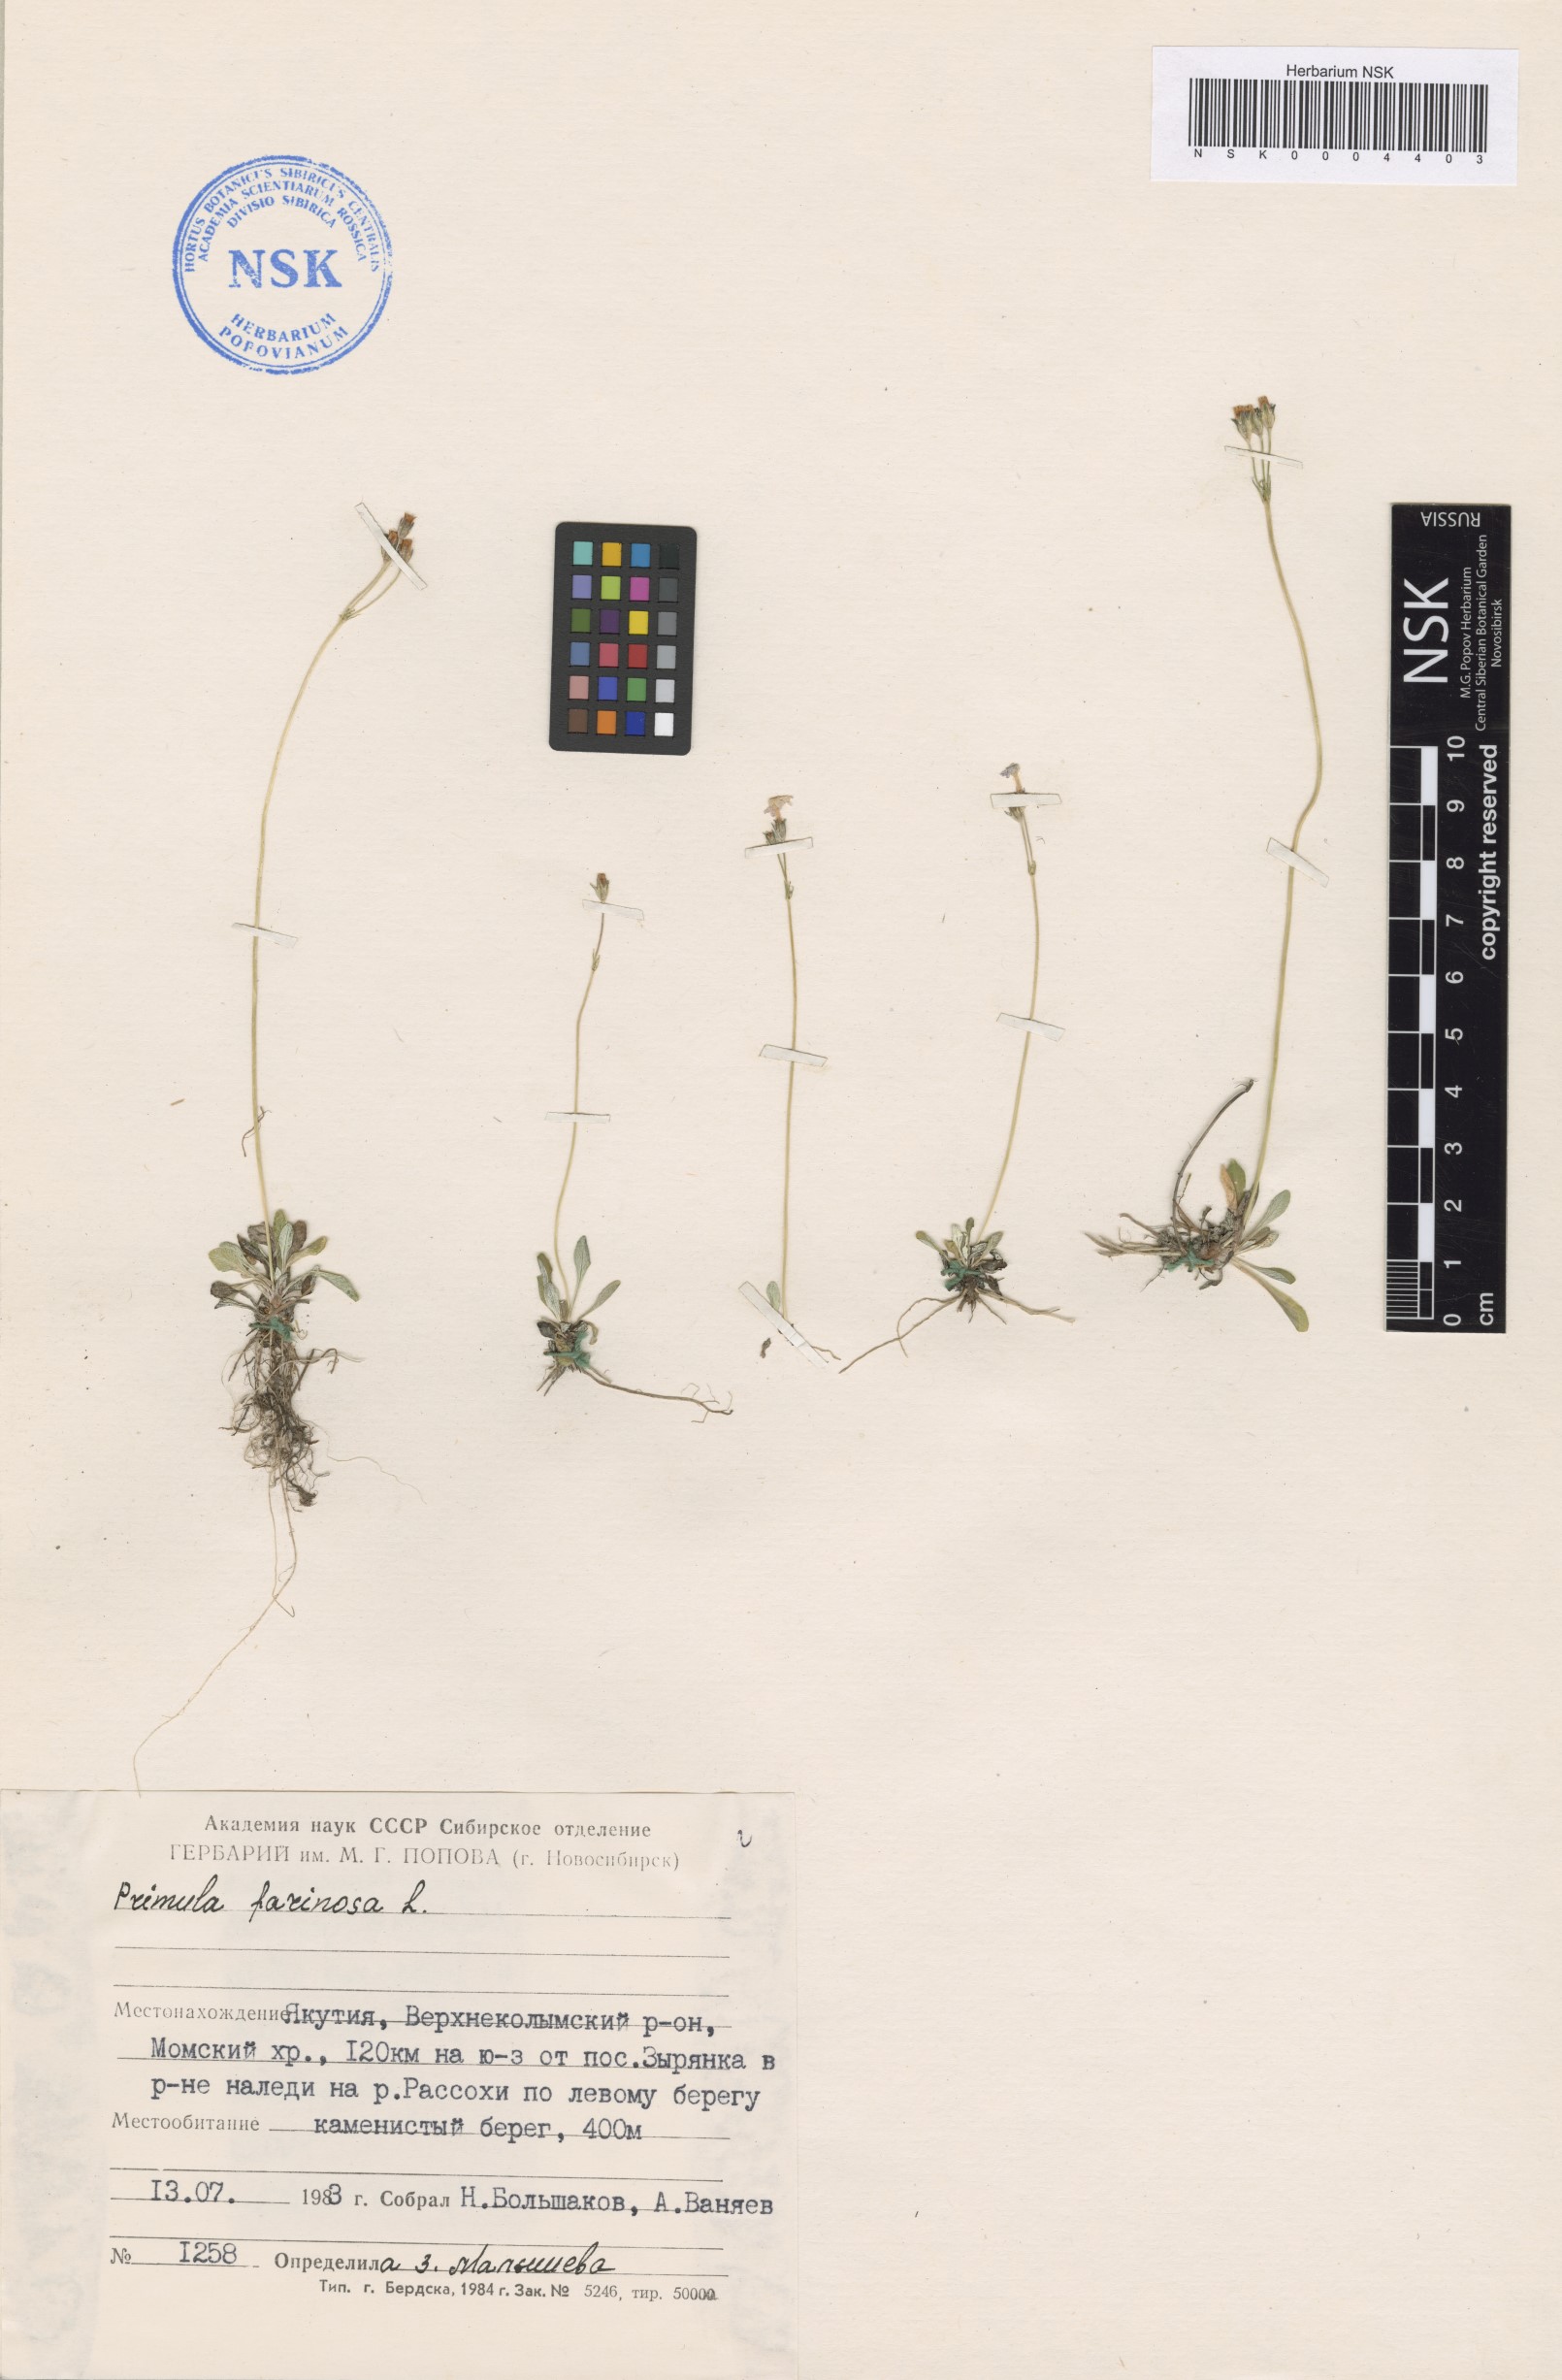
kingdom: Plantae
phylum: Tracheophyta
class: Magnoliopsida
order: Ericales
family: Primulaceae
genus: Primula
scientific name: Primula farinosa
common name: Bird's-eye primrose
